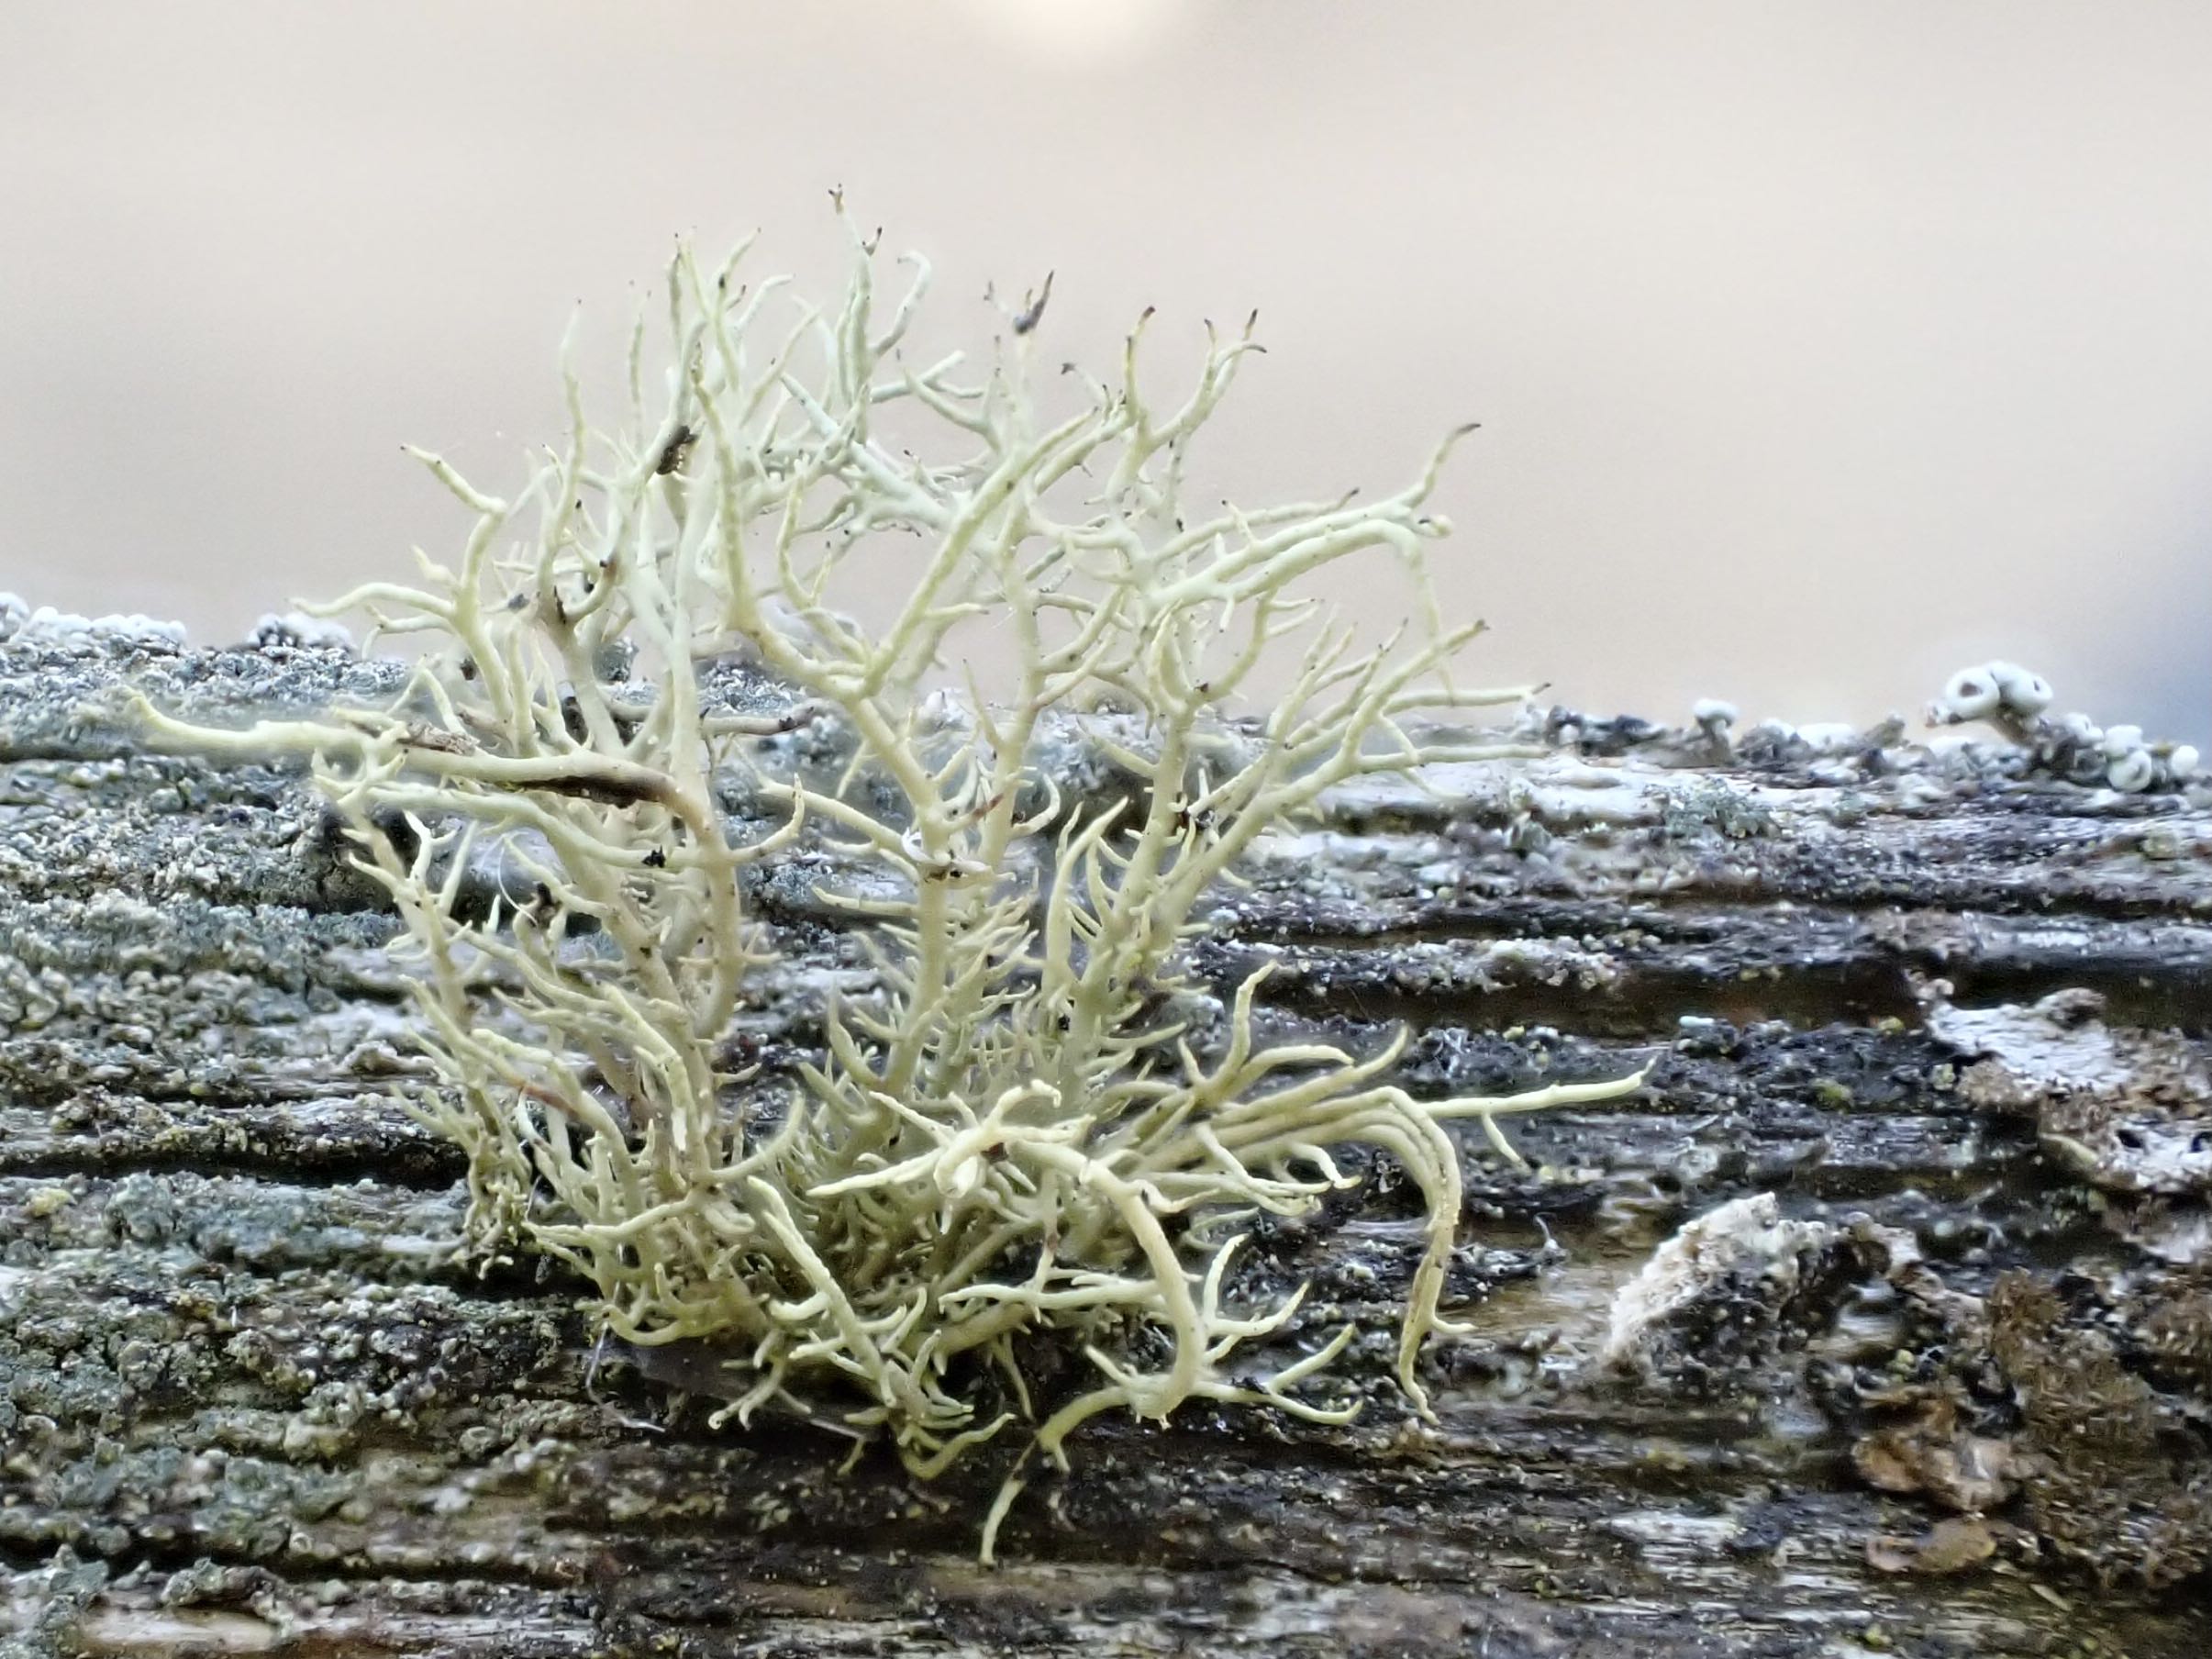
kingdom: Fungi
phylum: Ascomycota
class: Lecanoromycetes
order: Lecanorales
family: Parmeliaceae
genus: Usnea
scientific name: Usnea hirta
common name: liden skæglav
